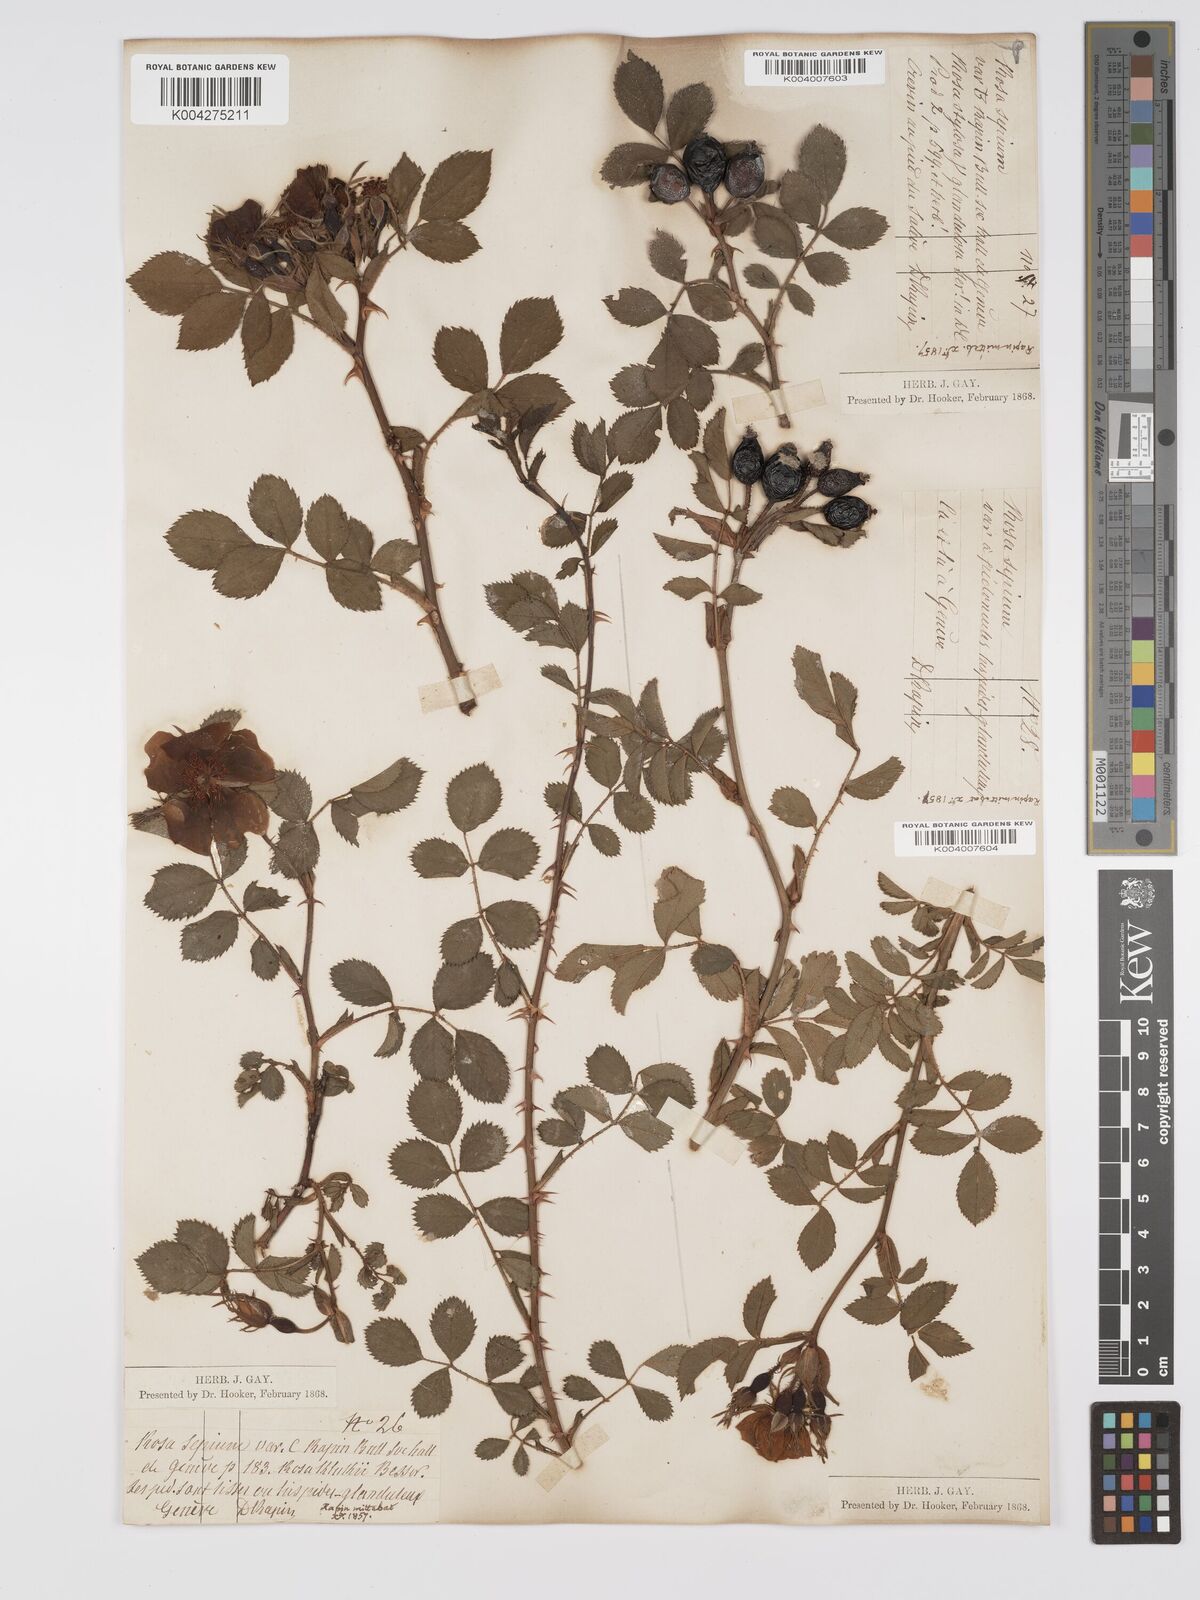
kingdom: Plantae
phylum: Tracheophyta
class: Magnoliopsida
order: Rosales
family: Rosaceae
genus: Rosa
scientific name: Rosa
